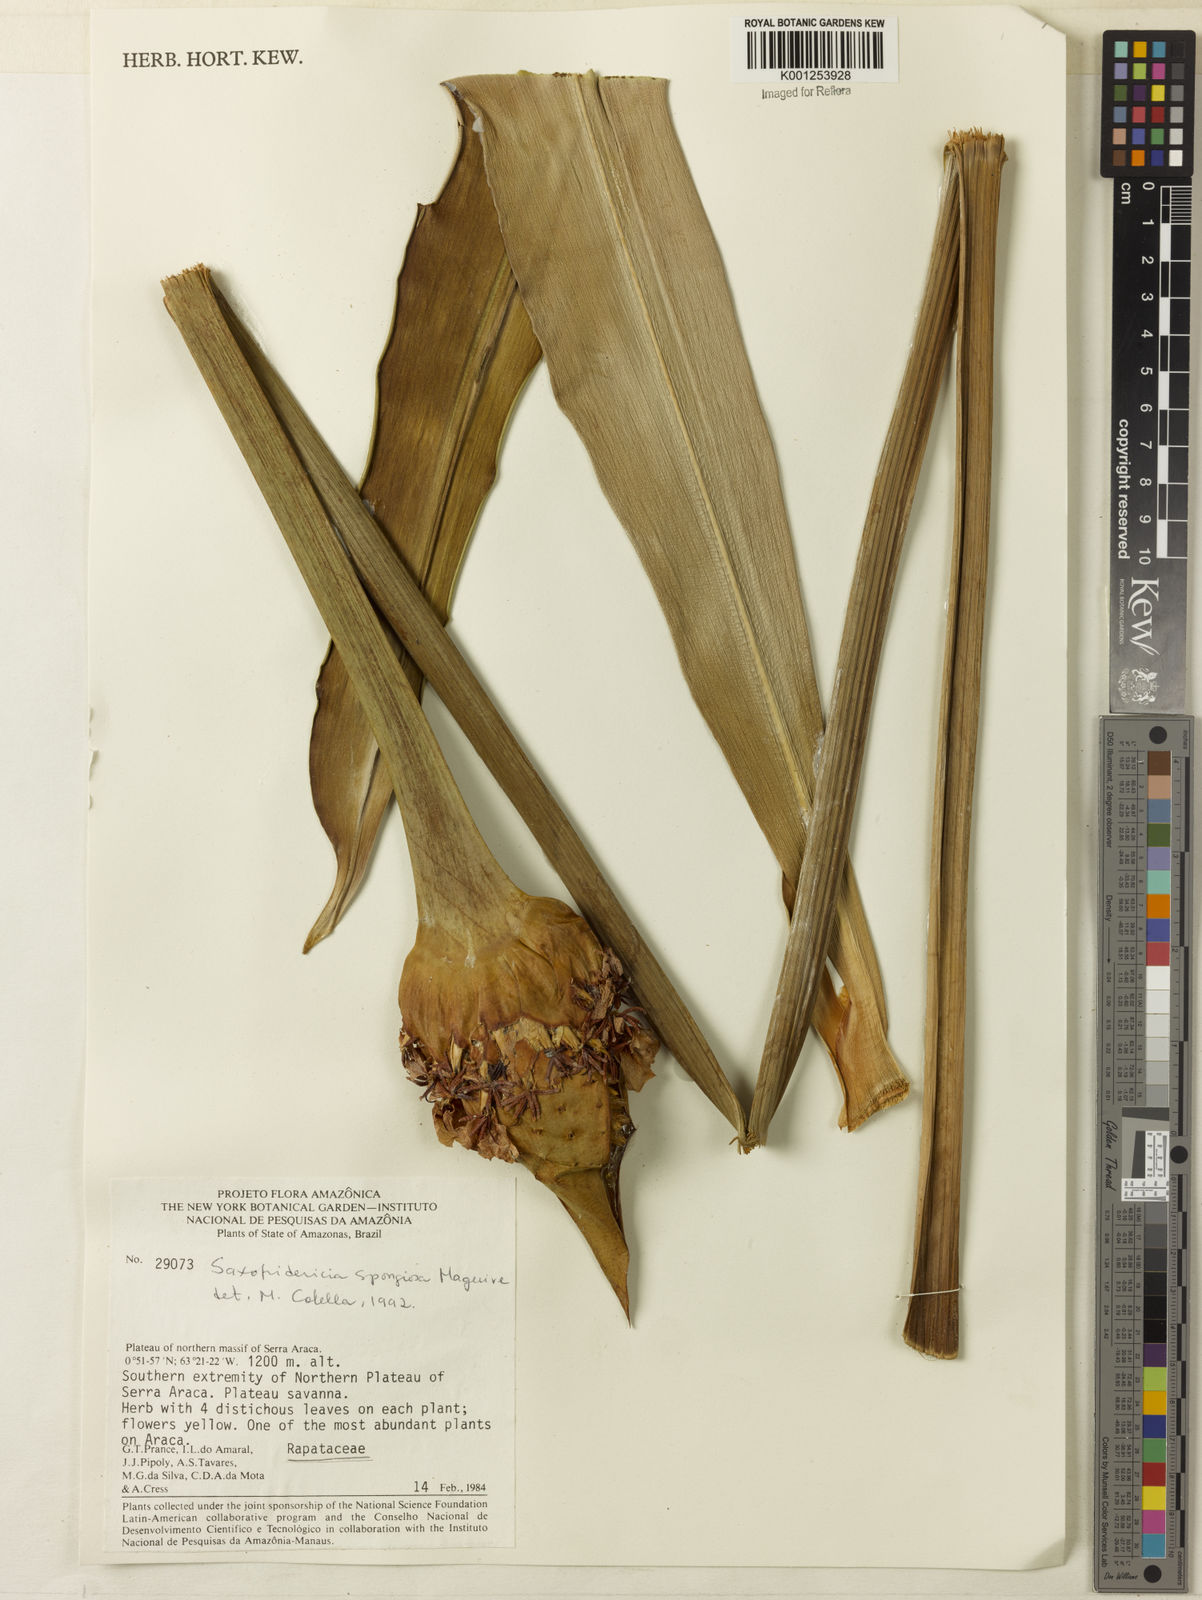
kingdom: Plantae
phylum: Tracheophyta
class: Liliopsida
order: Poales
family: Rapateaceae
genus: Saxofridericia
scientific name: Saxofridericia spongiosa
